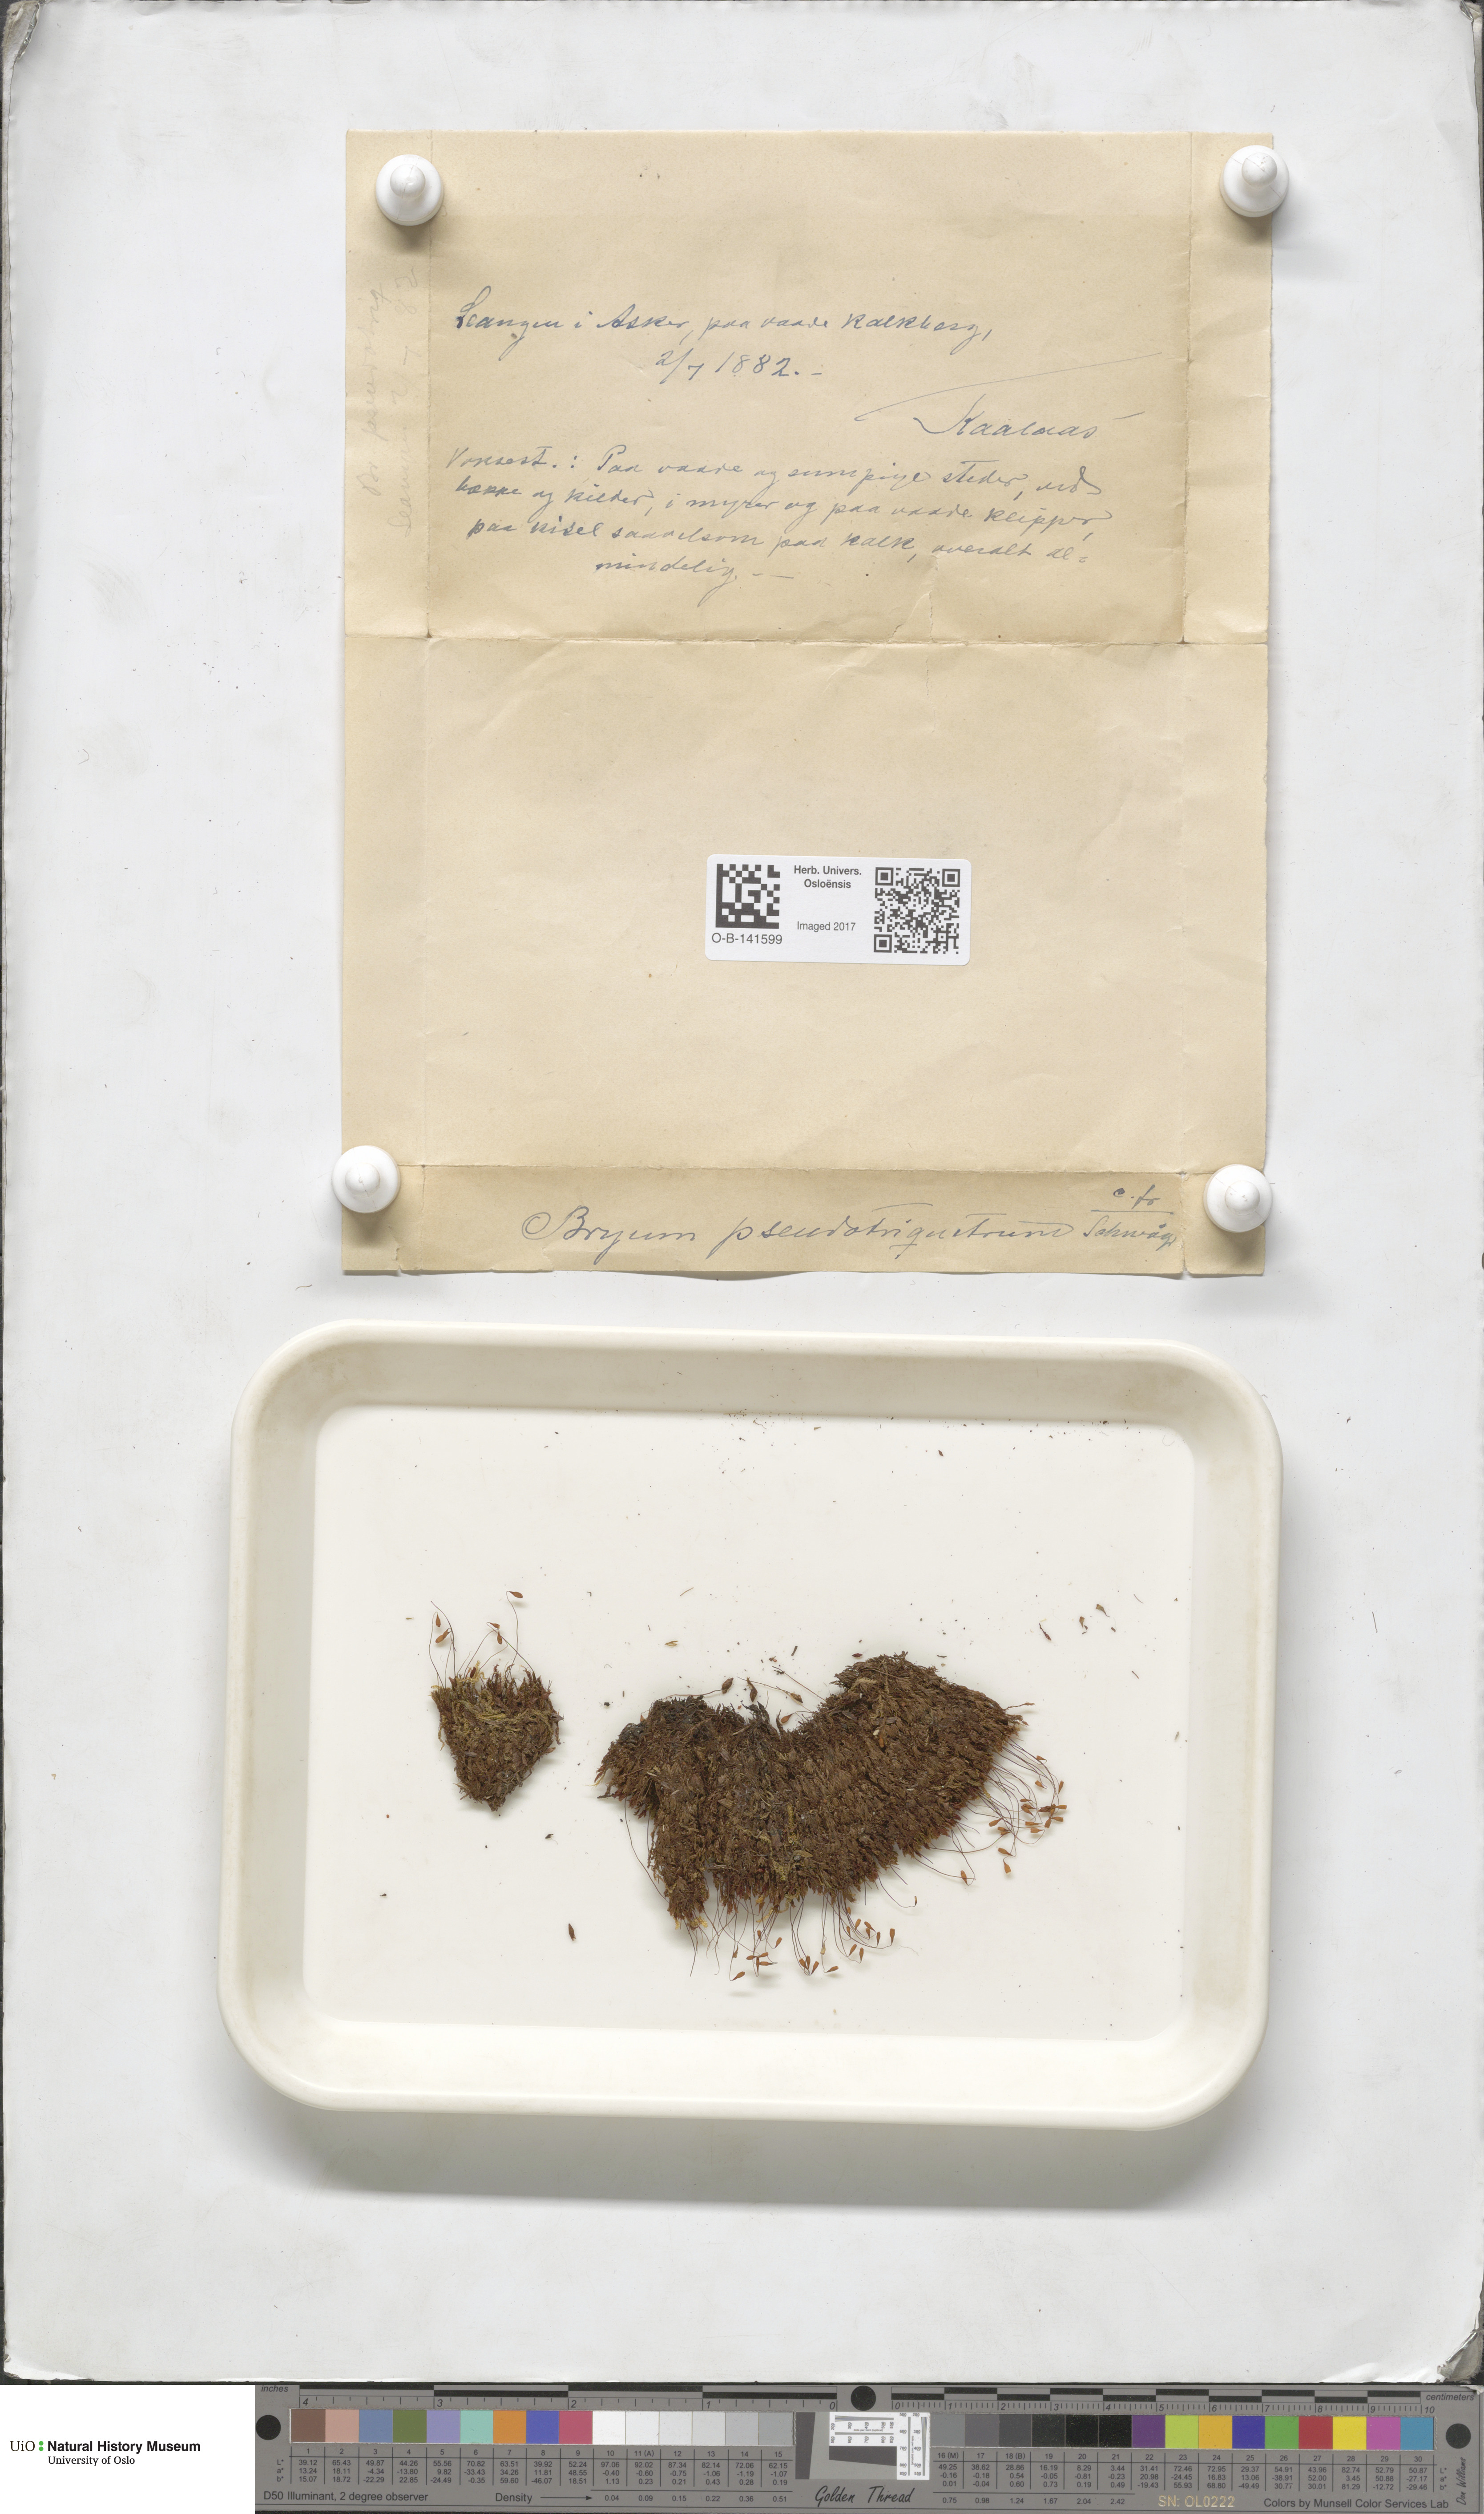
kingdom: Plantae
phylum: Bryophyta
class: Bryopsida
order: Bryales
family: Bryaceae
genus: Ptychostomum
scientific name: Ptychostomum pseudotriquetrum
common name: Long-leaved thread moss
